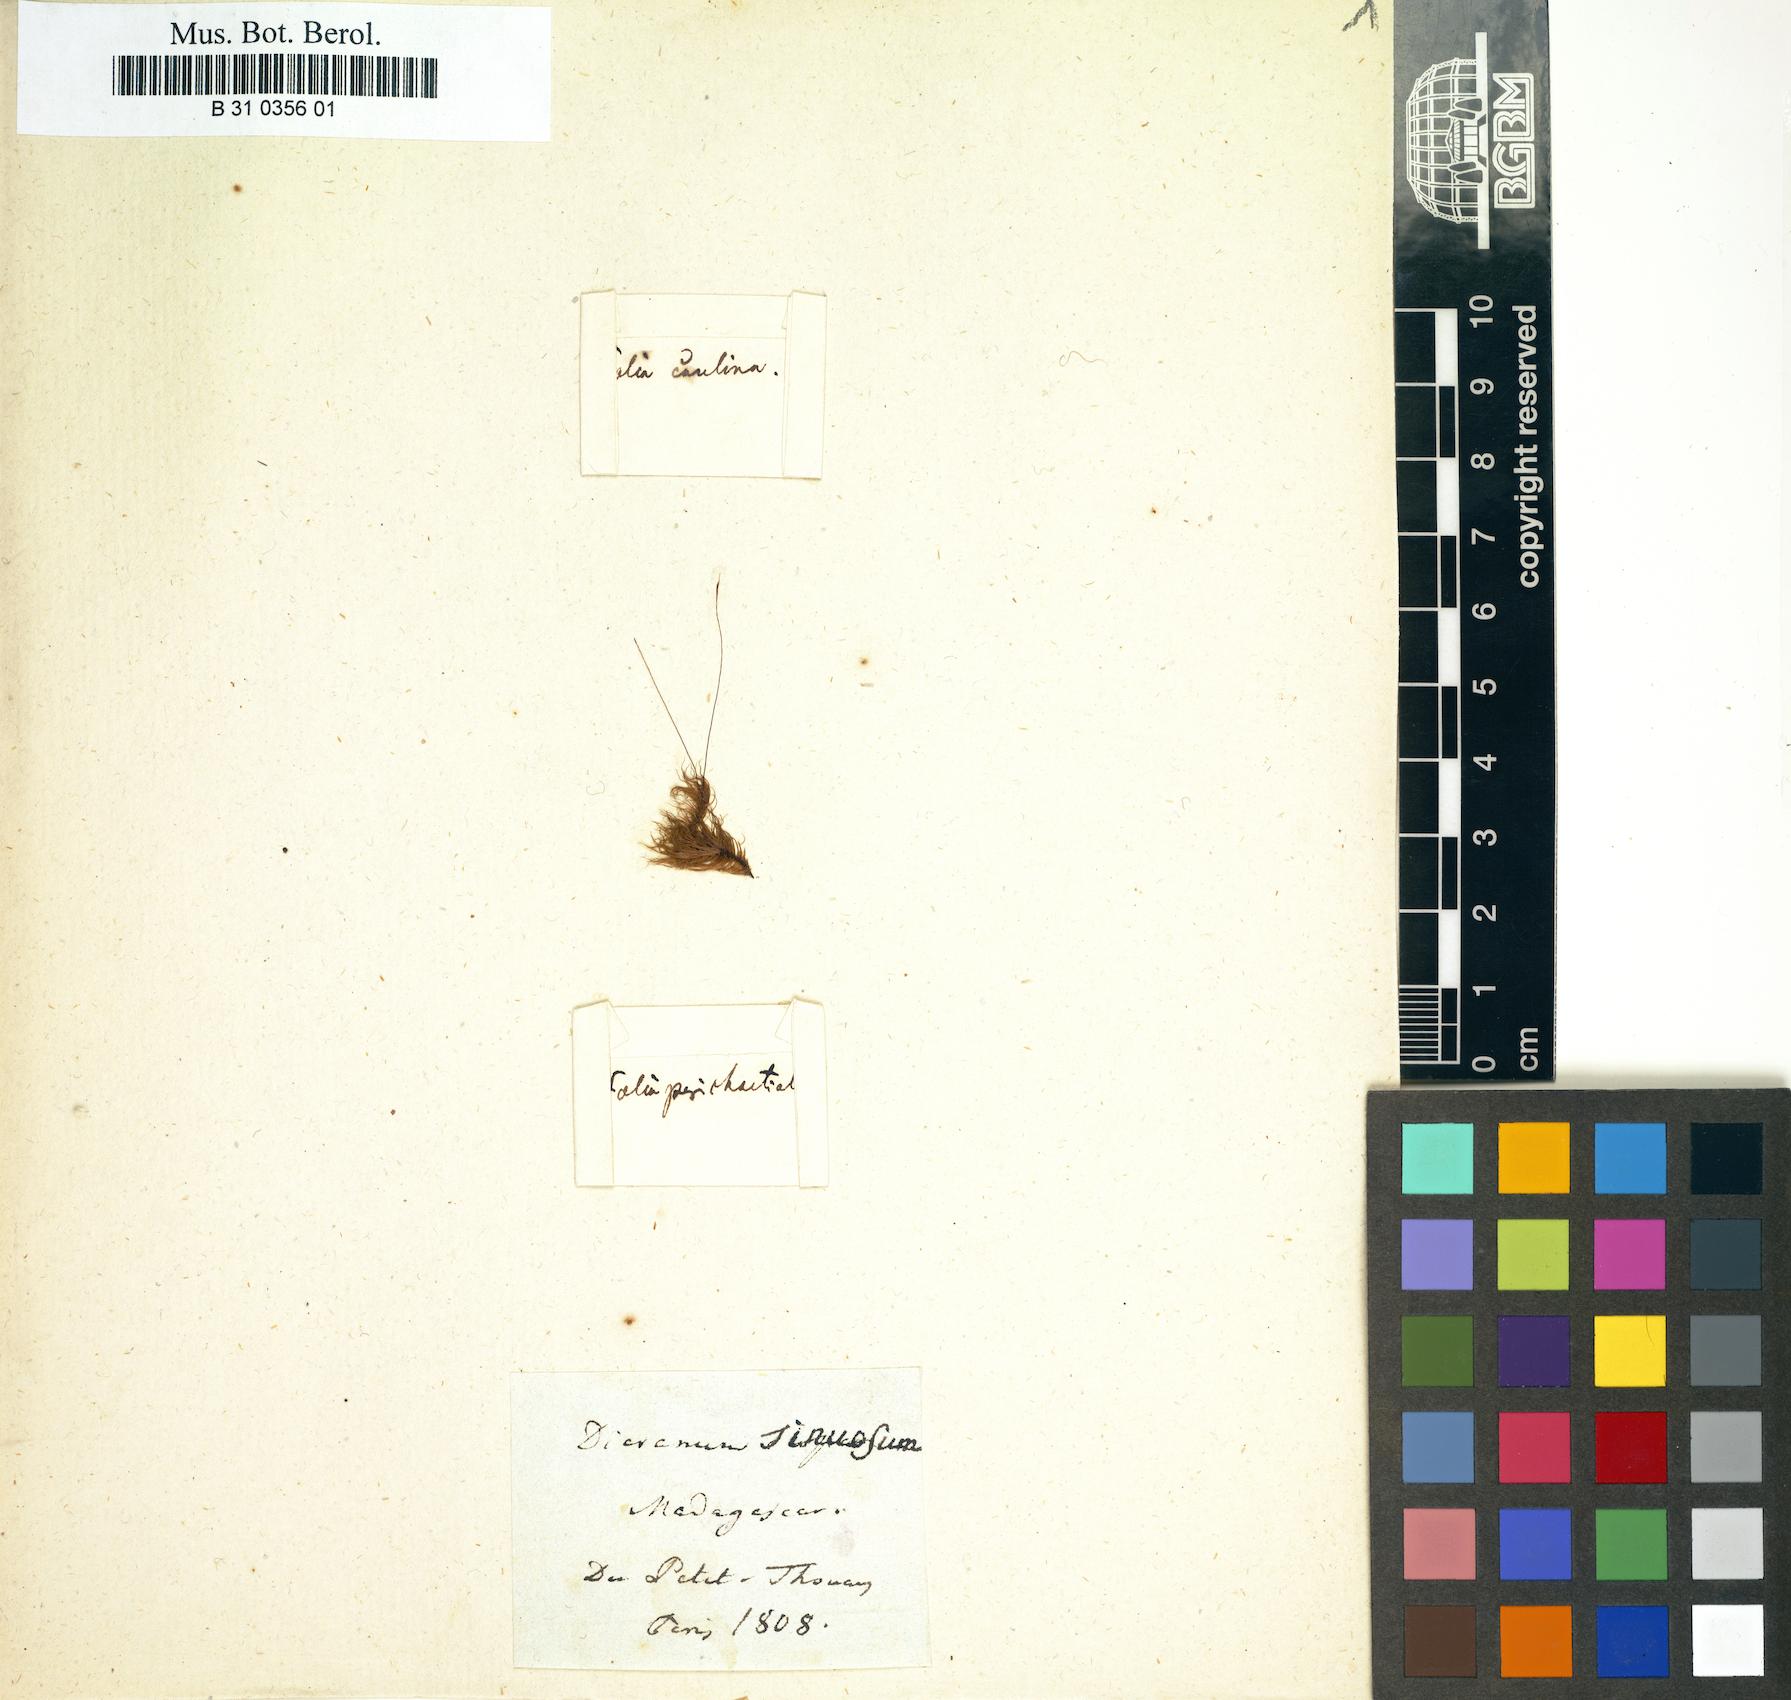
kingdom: Plantae
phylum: Bryophyta
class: Bryopsida
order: Dicranales
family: Dicranaceae
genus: Leucoloma
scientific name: Leucoloma longifolium
